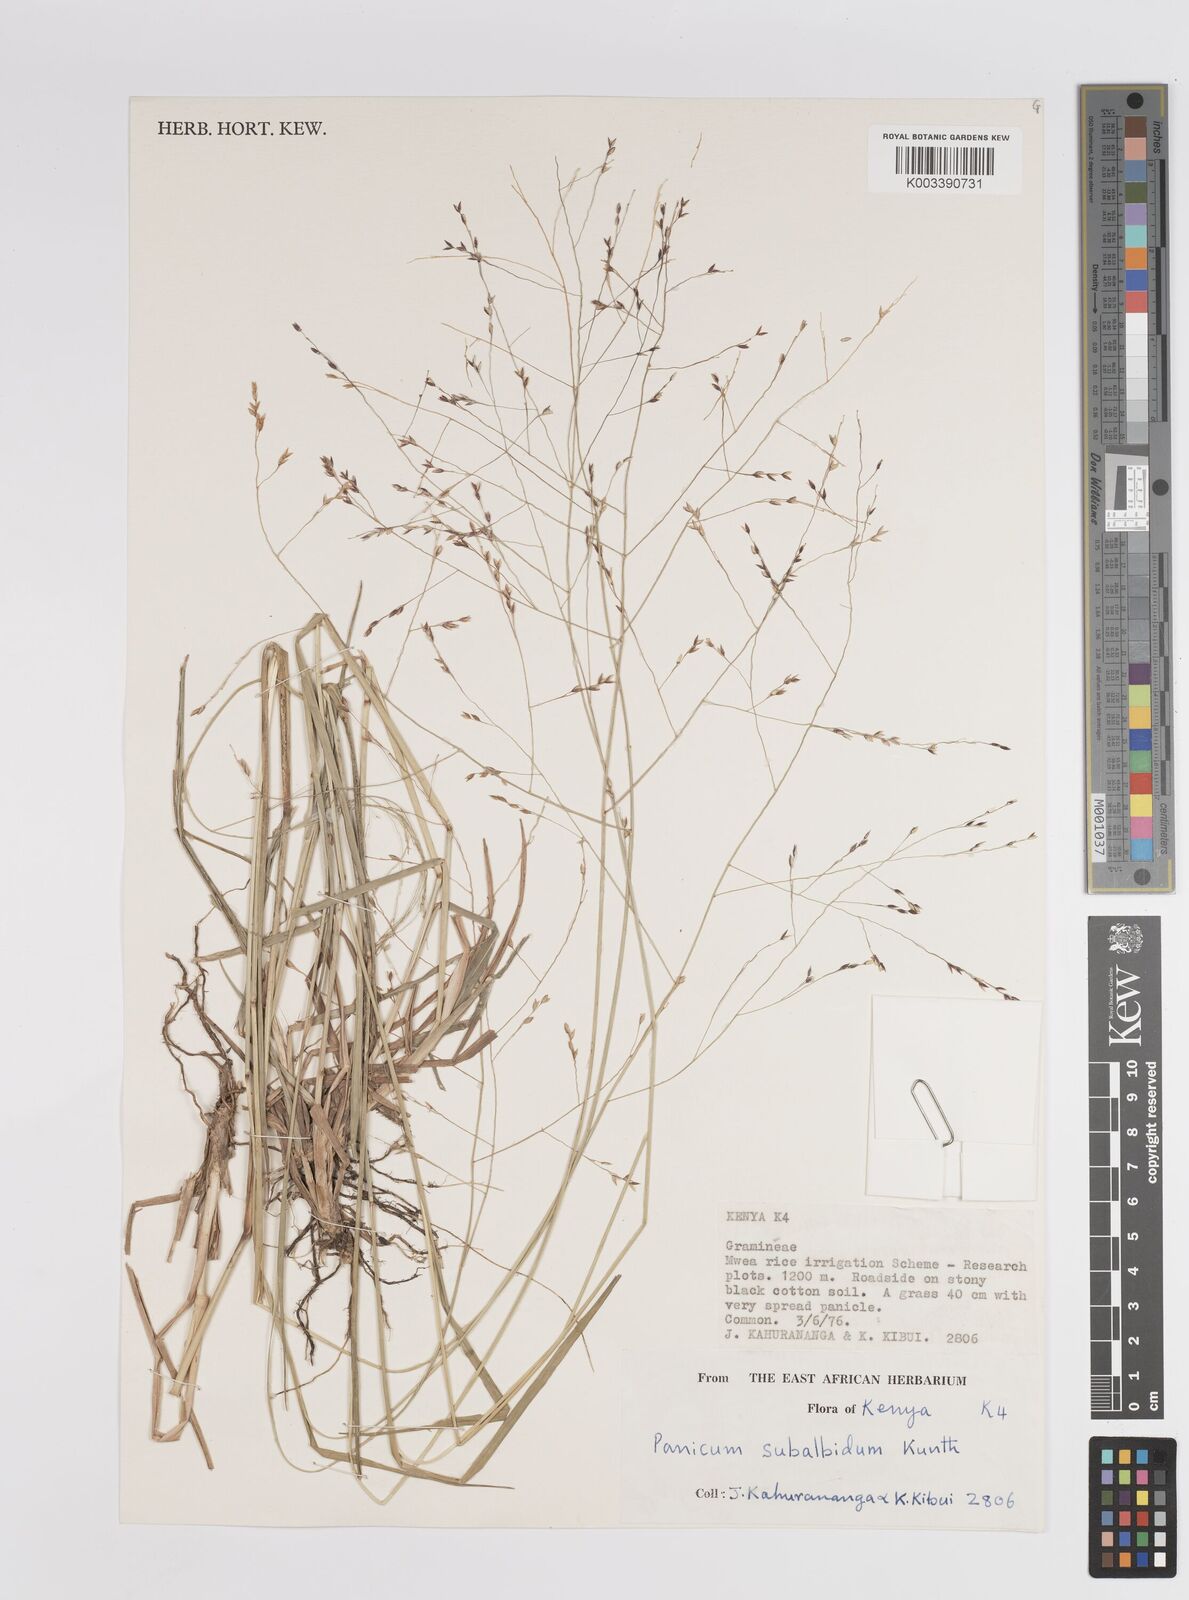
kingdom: Plantae
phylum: Tracheophyta
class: Liliopsida
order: Poales
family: Poaceae
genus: Panicum
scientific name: Panicum porphyrrhizos
